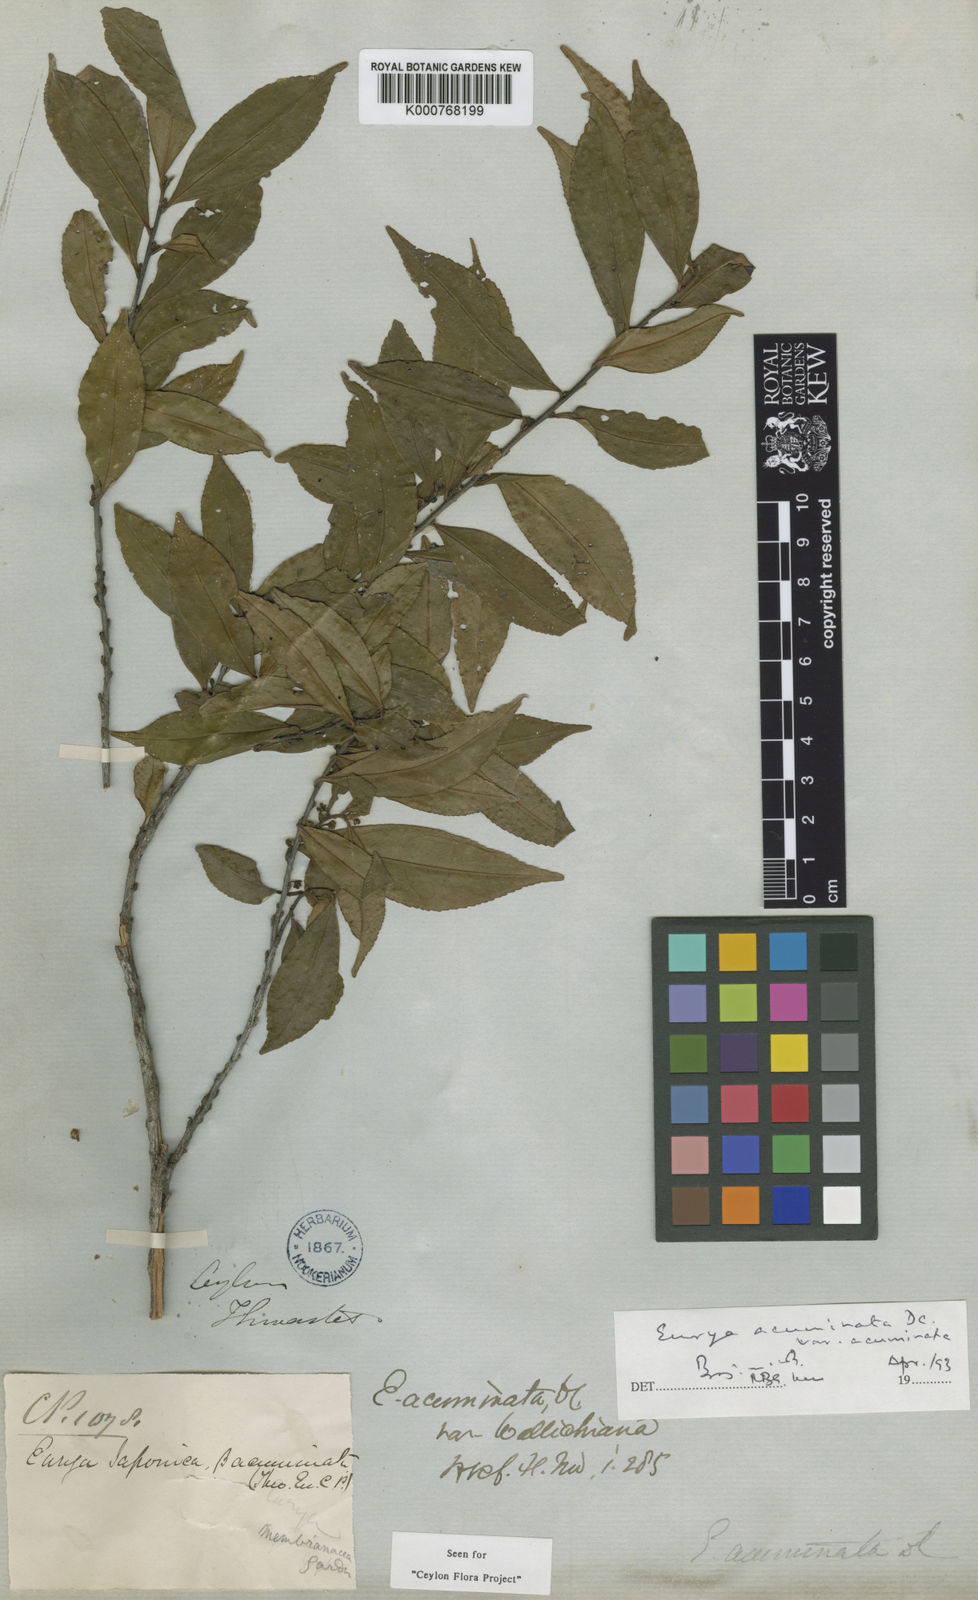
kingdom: Plantae
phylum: Tracheophyta
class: Magnoliopsida
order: Ericales
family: Pentaphylacaceae
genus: Eurya
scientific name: Eurya acuminata
